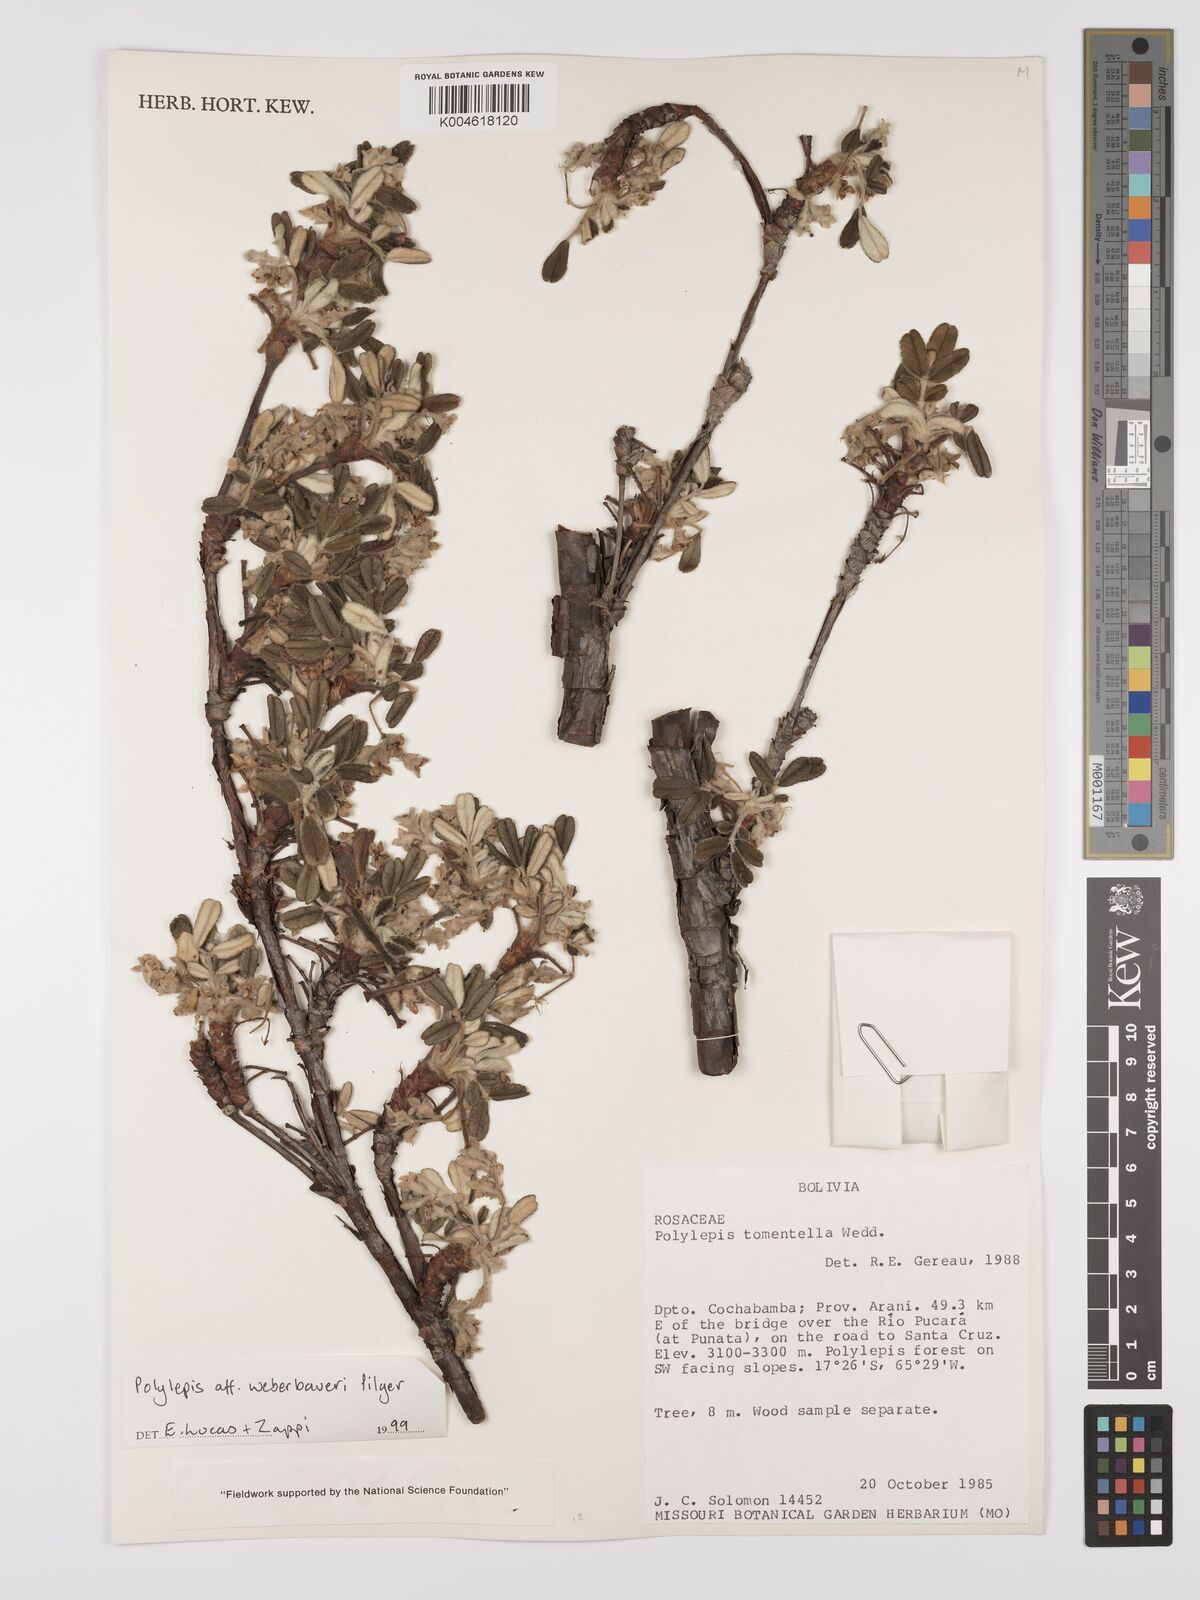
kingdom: Plantae
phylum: Tracheophyta
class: Magnoliopsida
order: Rosales
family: Rosaceae
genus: Polylepis
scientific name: Polylepis weberbaueri
